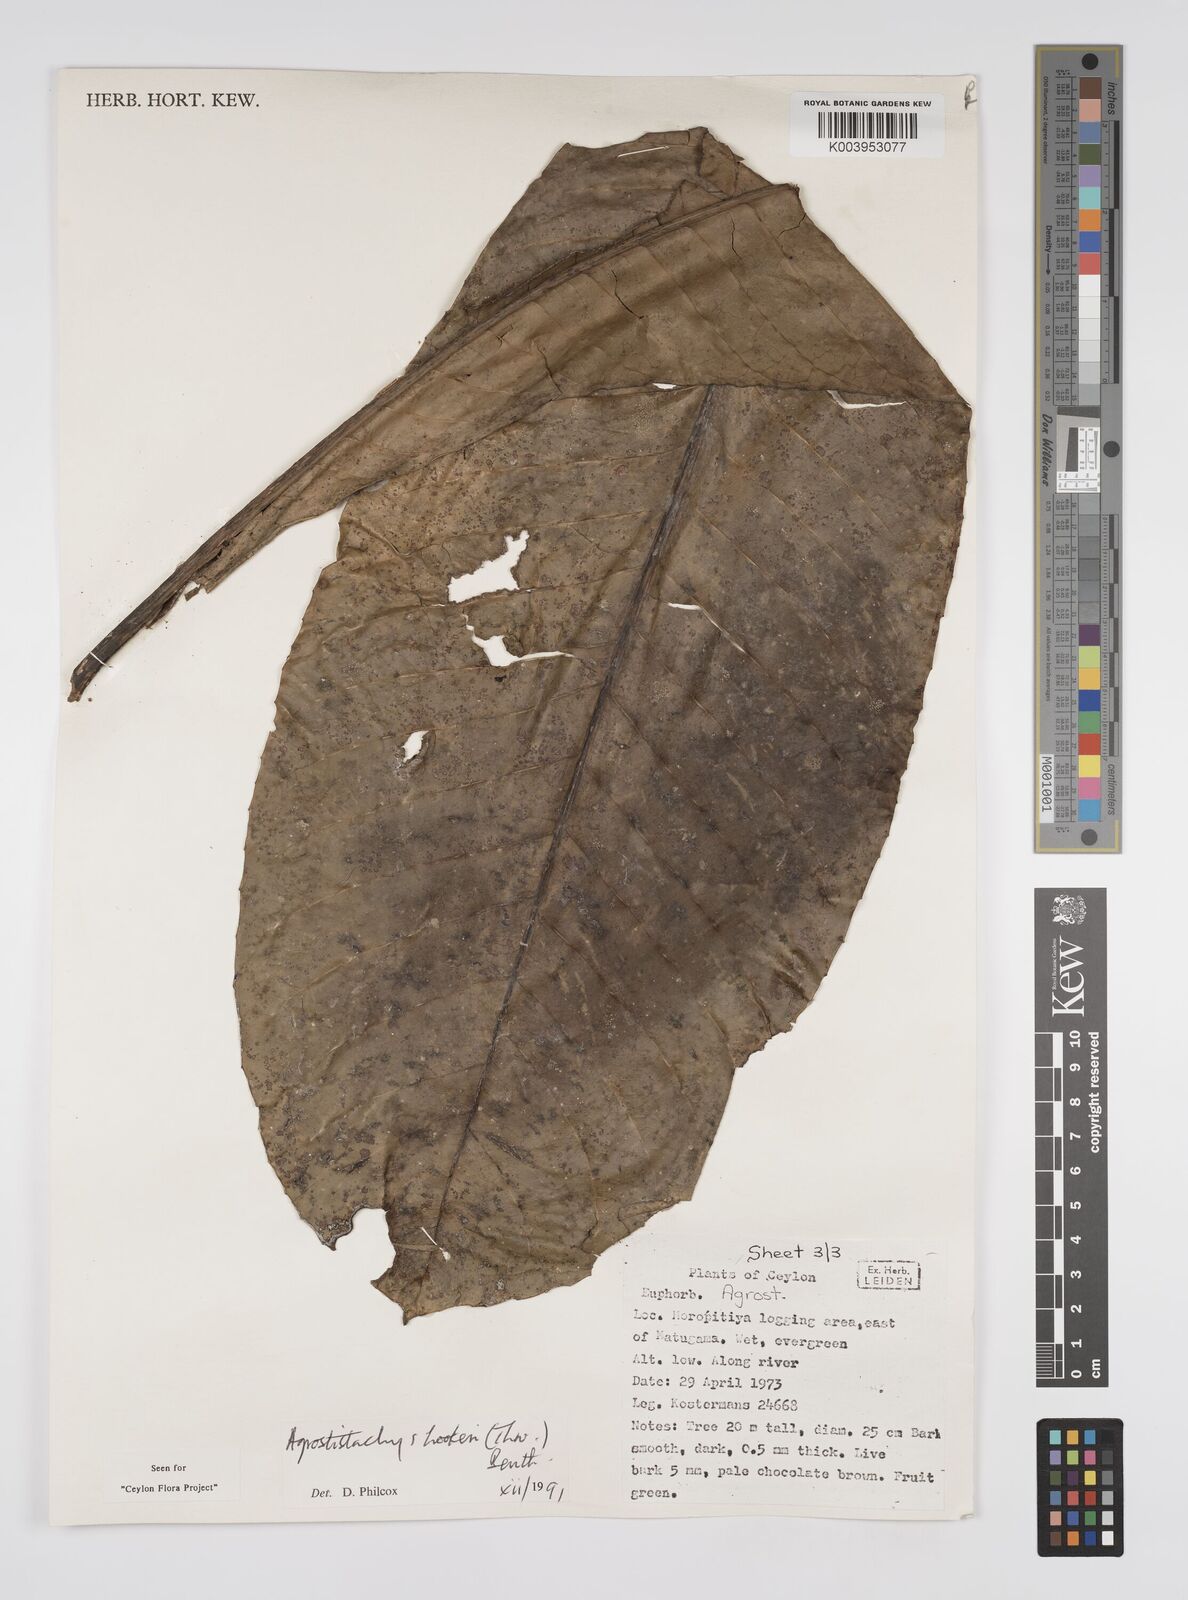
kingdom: Plantae
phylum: Tracheophyta
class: Magnoliopsida
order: Malpighiales
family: Euphorbiaceae
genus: Agrostistachys
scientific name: Agrostistachys hookeri
